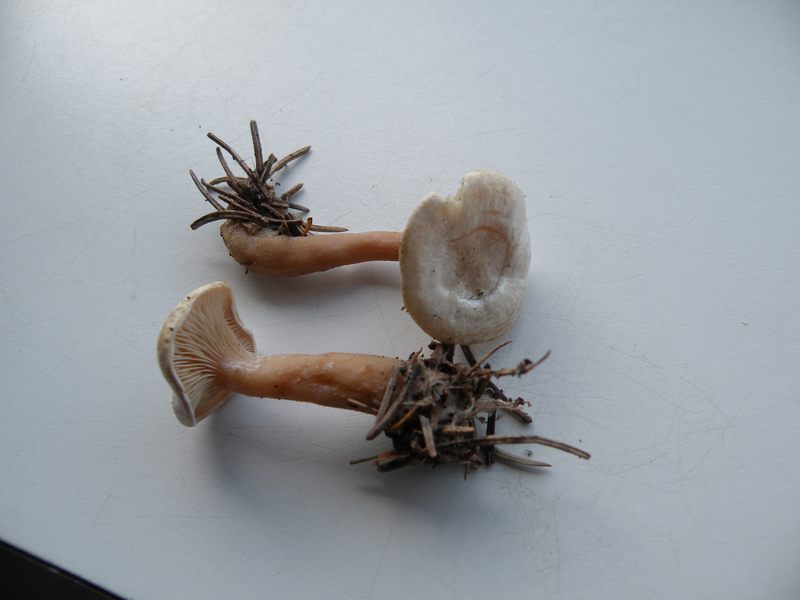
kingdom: Fungi
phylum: Basidiomycota
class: Agaricomycetes
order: Agaricales
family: Tricholomataceae
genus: Ripartites
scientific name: Ripartites tricholoma
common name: almindelig skæghat
